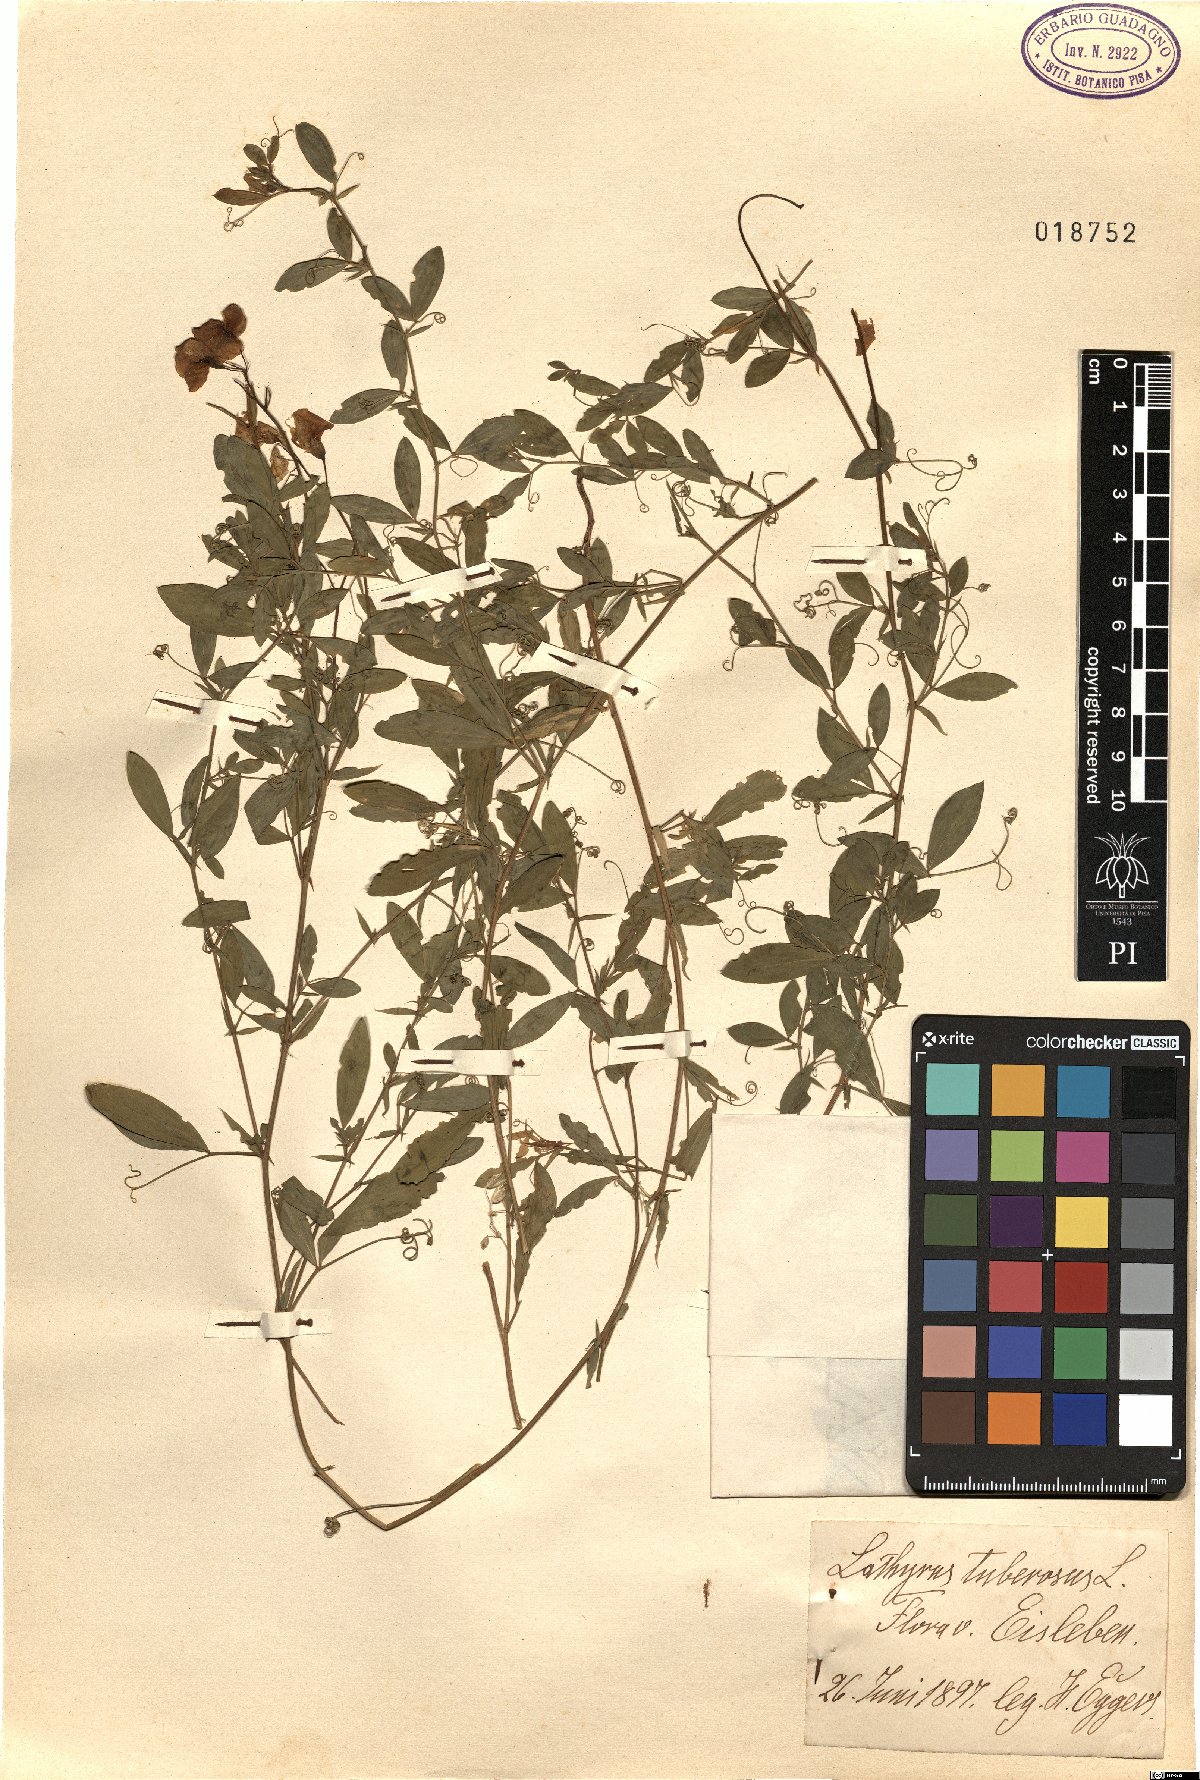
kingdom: Plantae
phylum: Tracheophyta
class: Magnoliopsida
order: Fabales
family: Fabaceae
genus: Lathyrus
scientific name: Lathyrus tuberosus
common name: Tuberous pea
